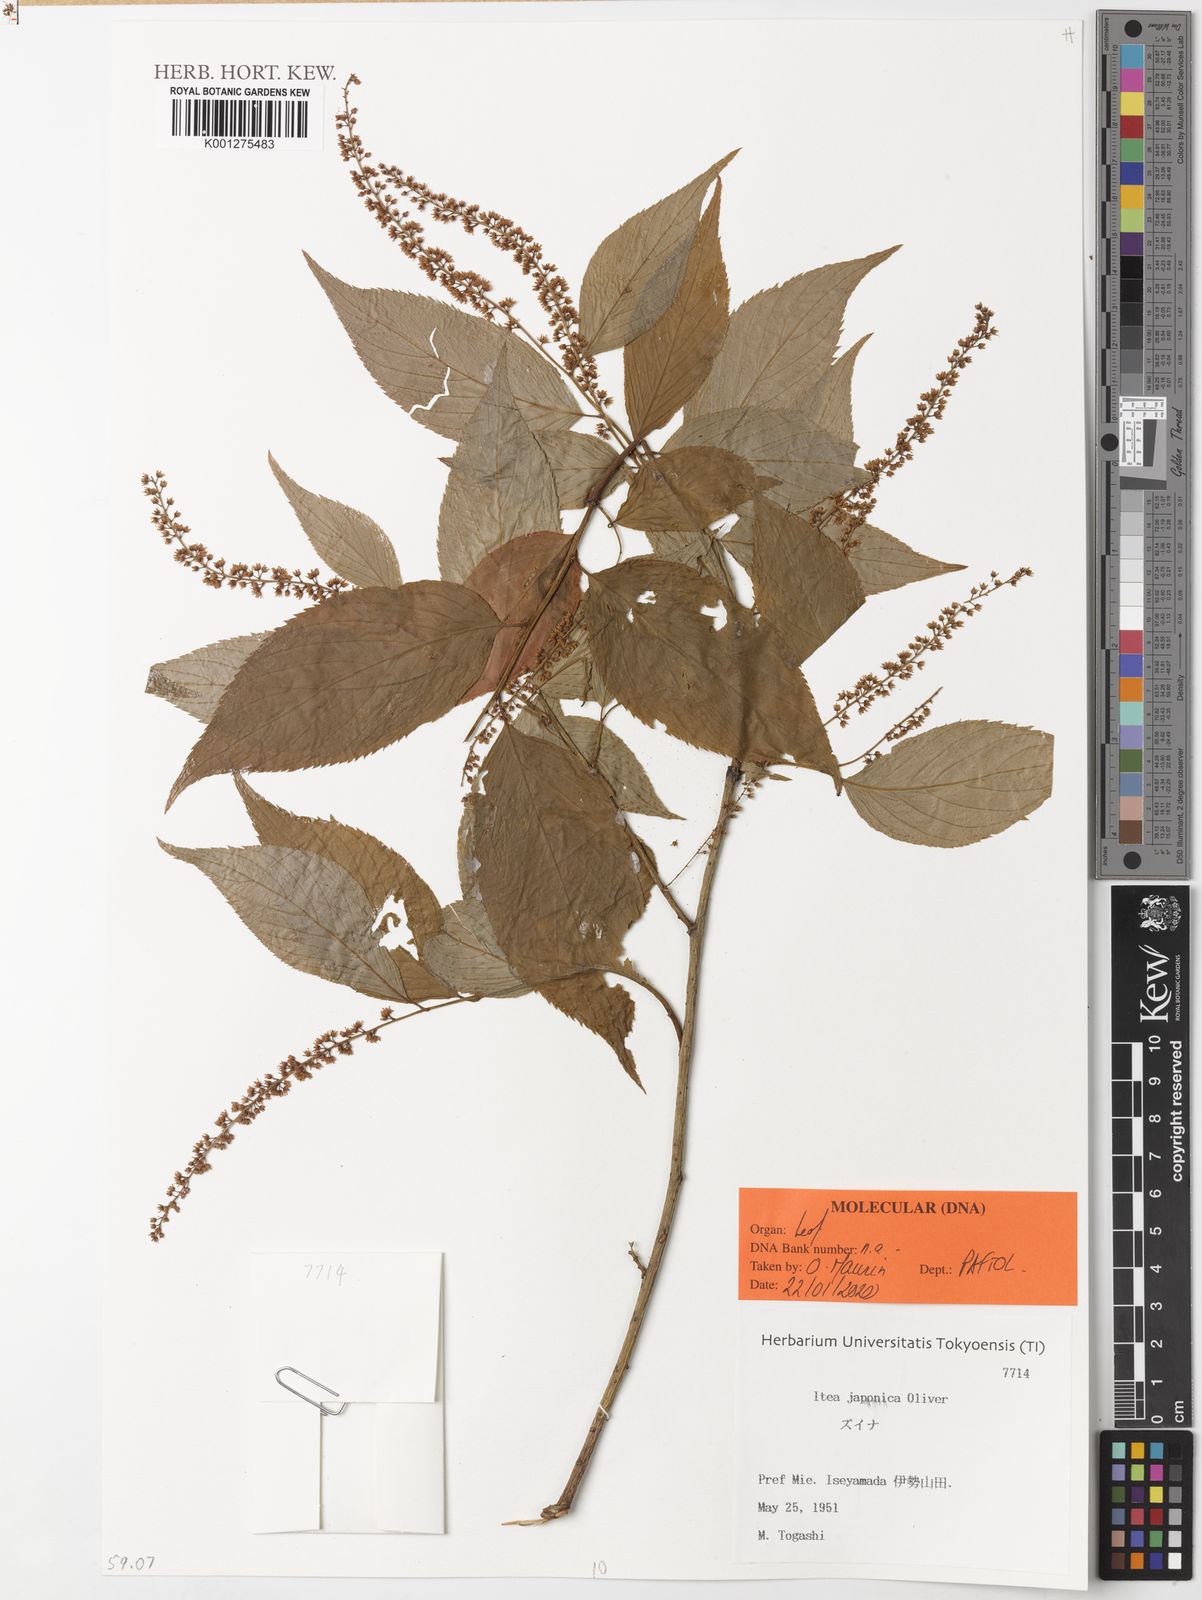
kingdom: Plantae
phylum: Tracheophyta
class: Magnoliopsida
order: Saxifragales
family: Iteaceae
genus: Itea
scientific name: Itea japonica
